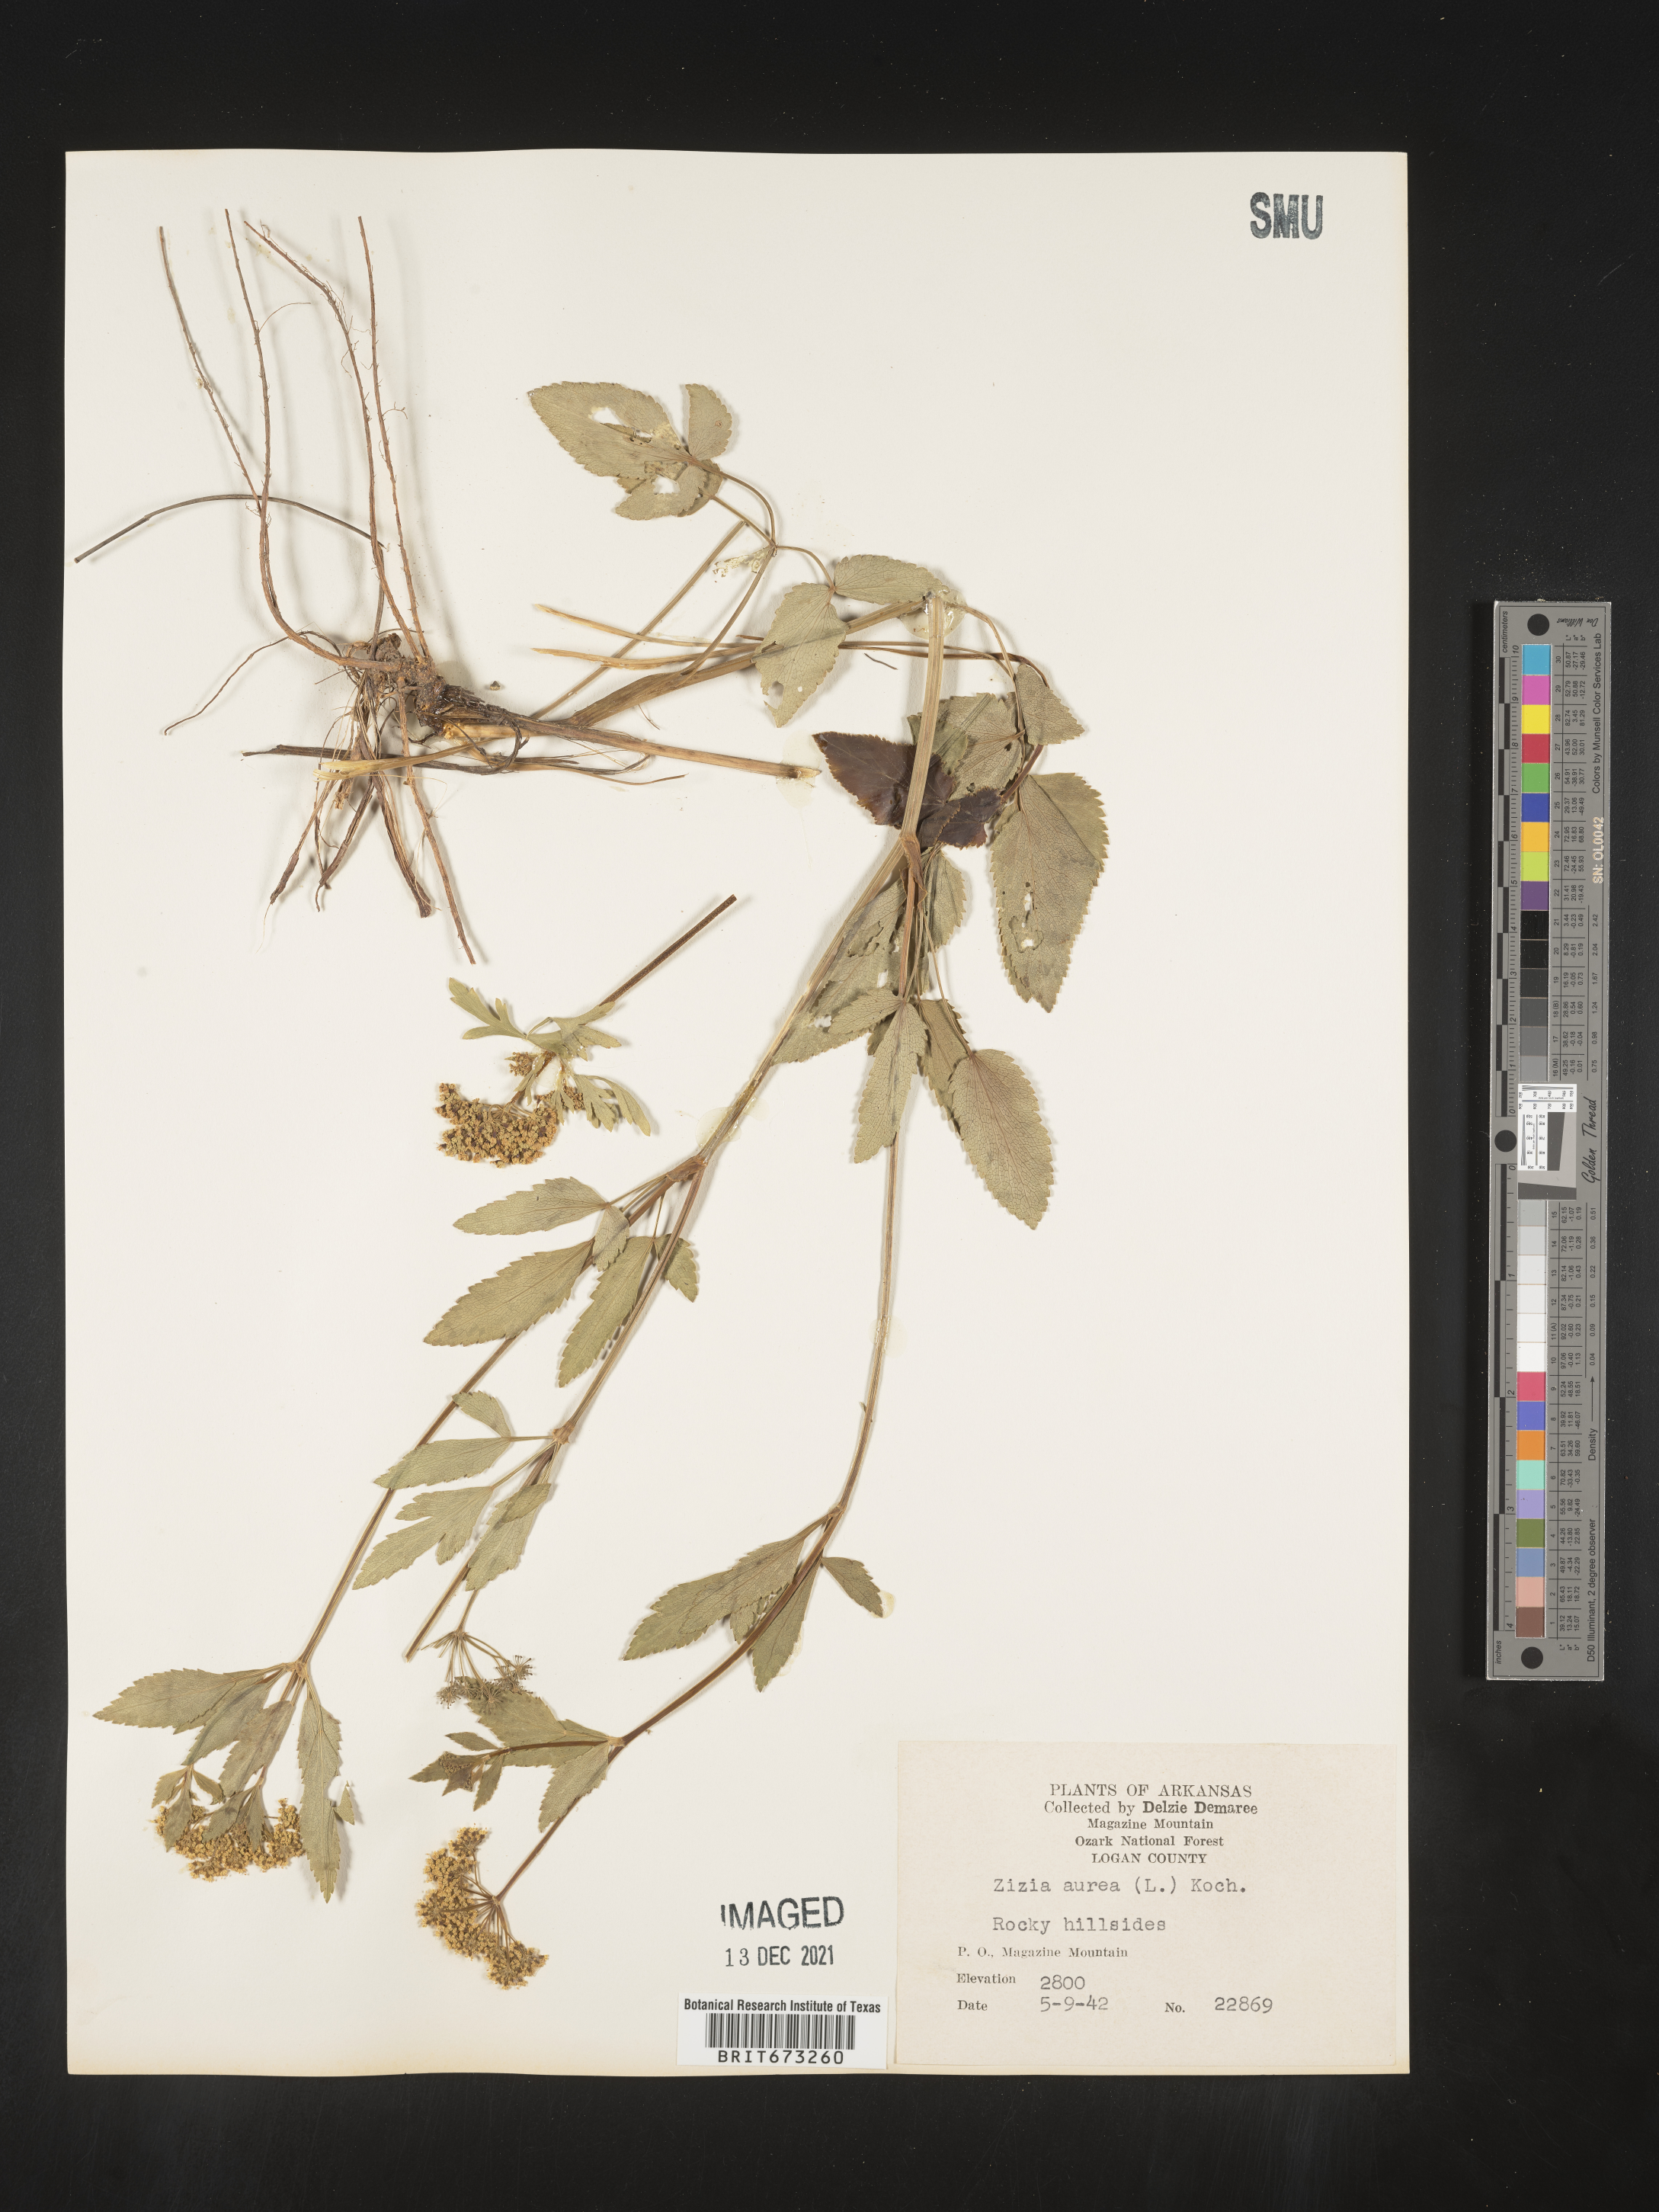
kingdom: Plantae
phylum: Tracheophyta
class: Magnoliopsida
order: Apiales
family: Apiaceae
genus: Zizia
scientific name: Zizia aurea
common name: Golden alexanders
